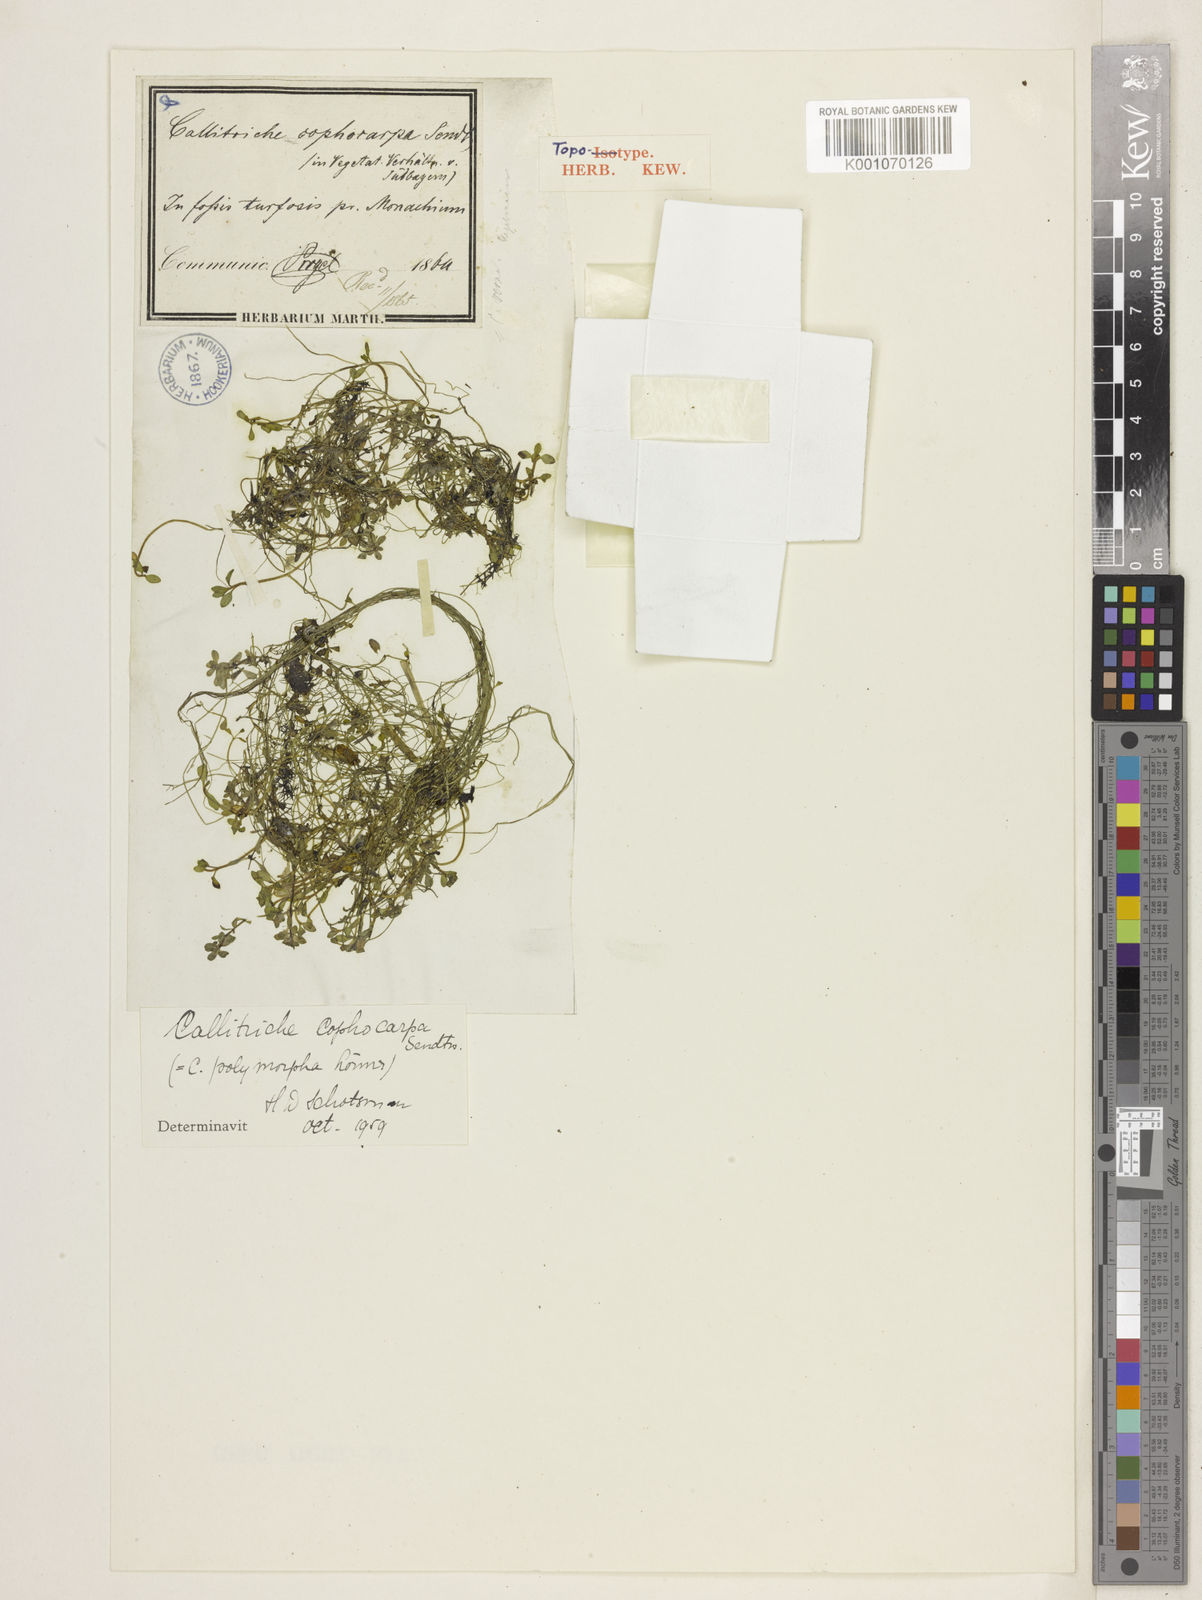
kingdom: Plantae
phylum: Tracheophyta
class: Magnoliopsida
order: Lamiales
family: Plantaginaceae
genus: Callitriche
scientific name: Callitriche
